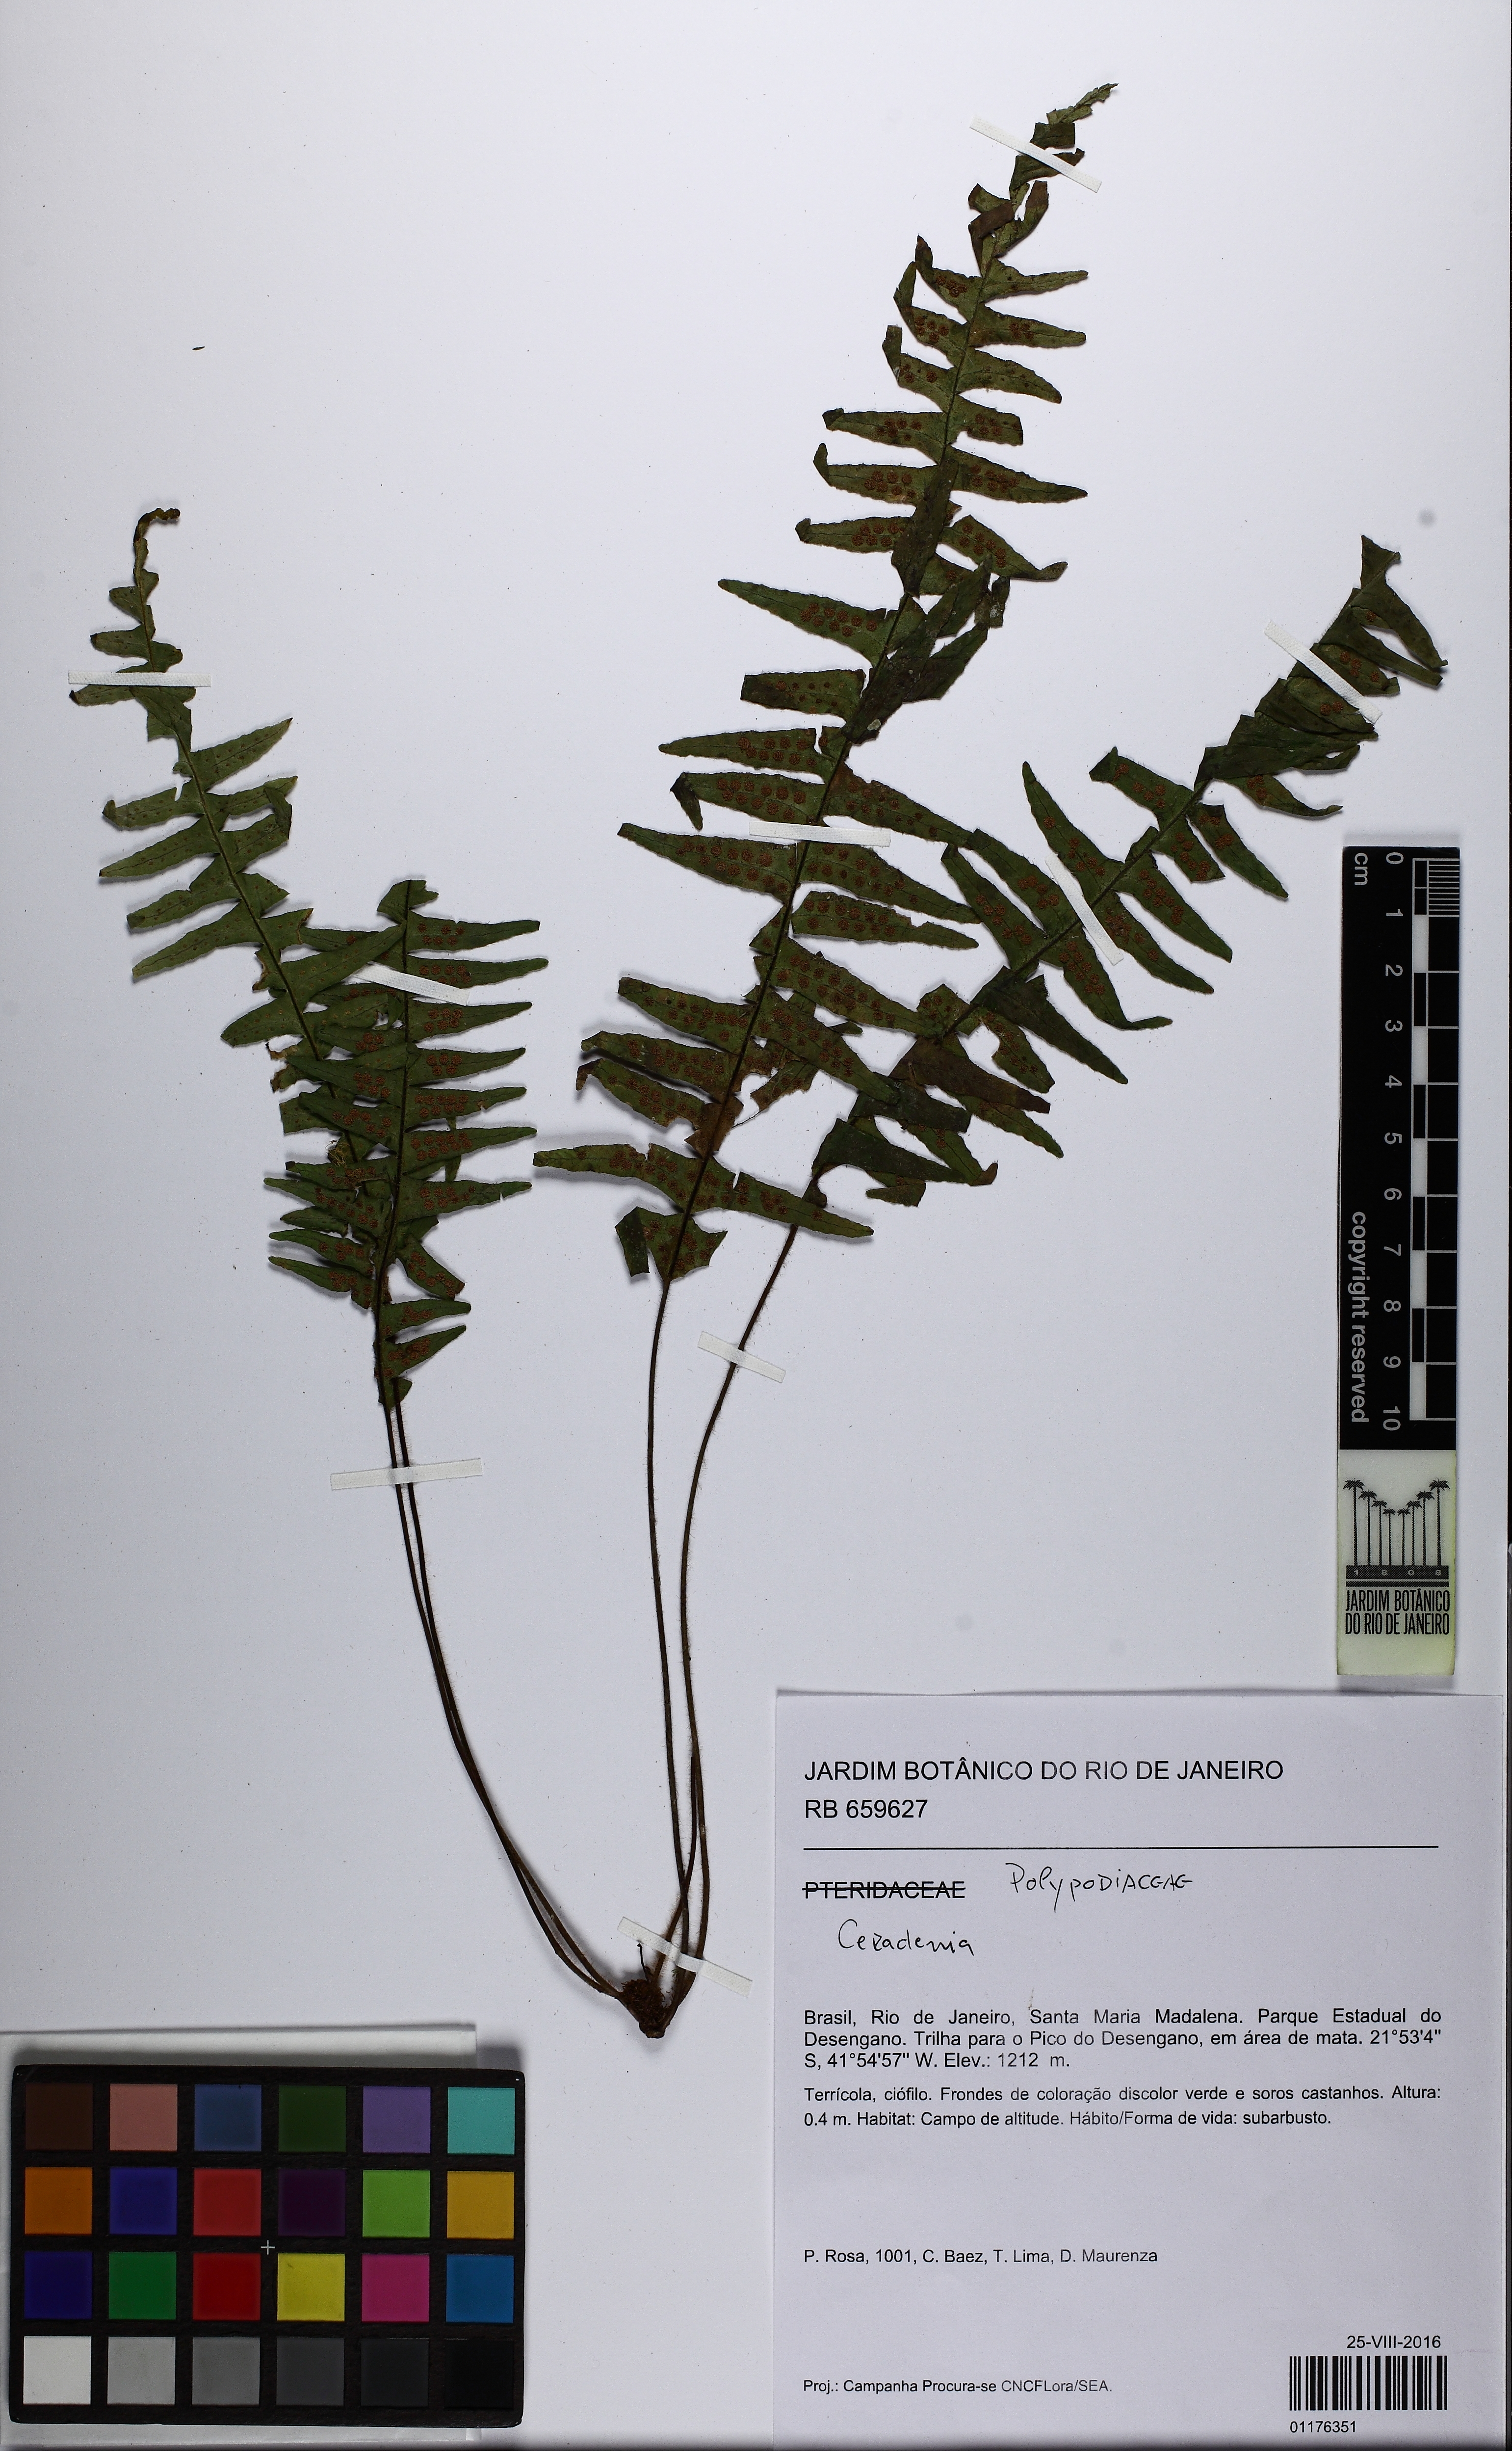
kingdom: Plantae
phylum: Tracheophyta
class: Polypodiopsida
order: Polypodiales
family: Polypodiaceae
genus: Ceradenia
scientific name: Ceradenia
